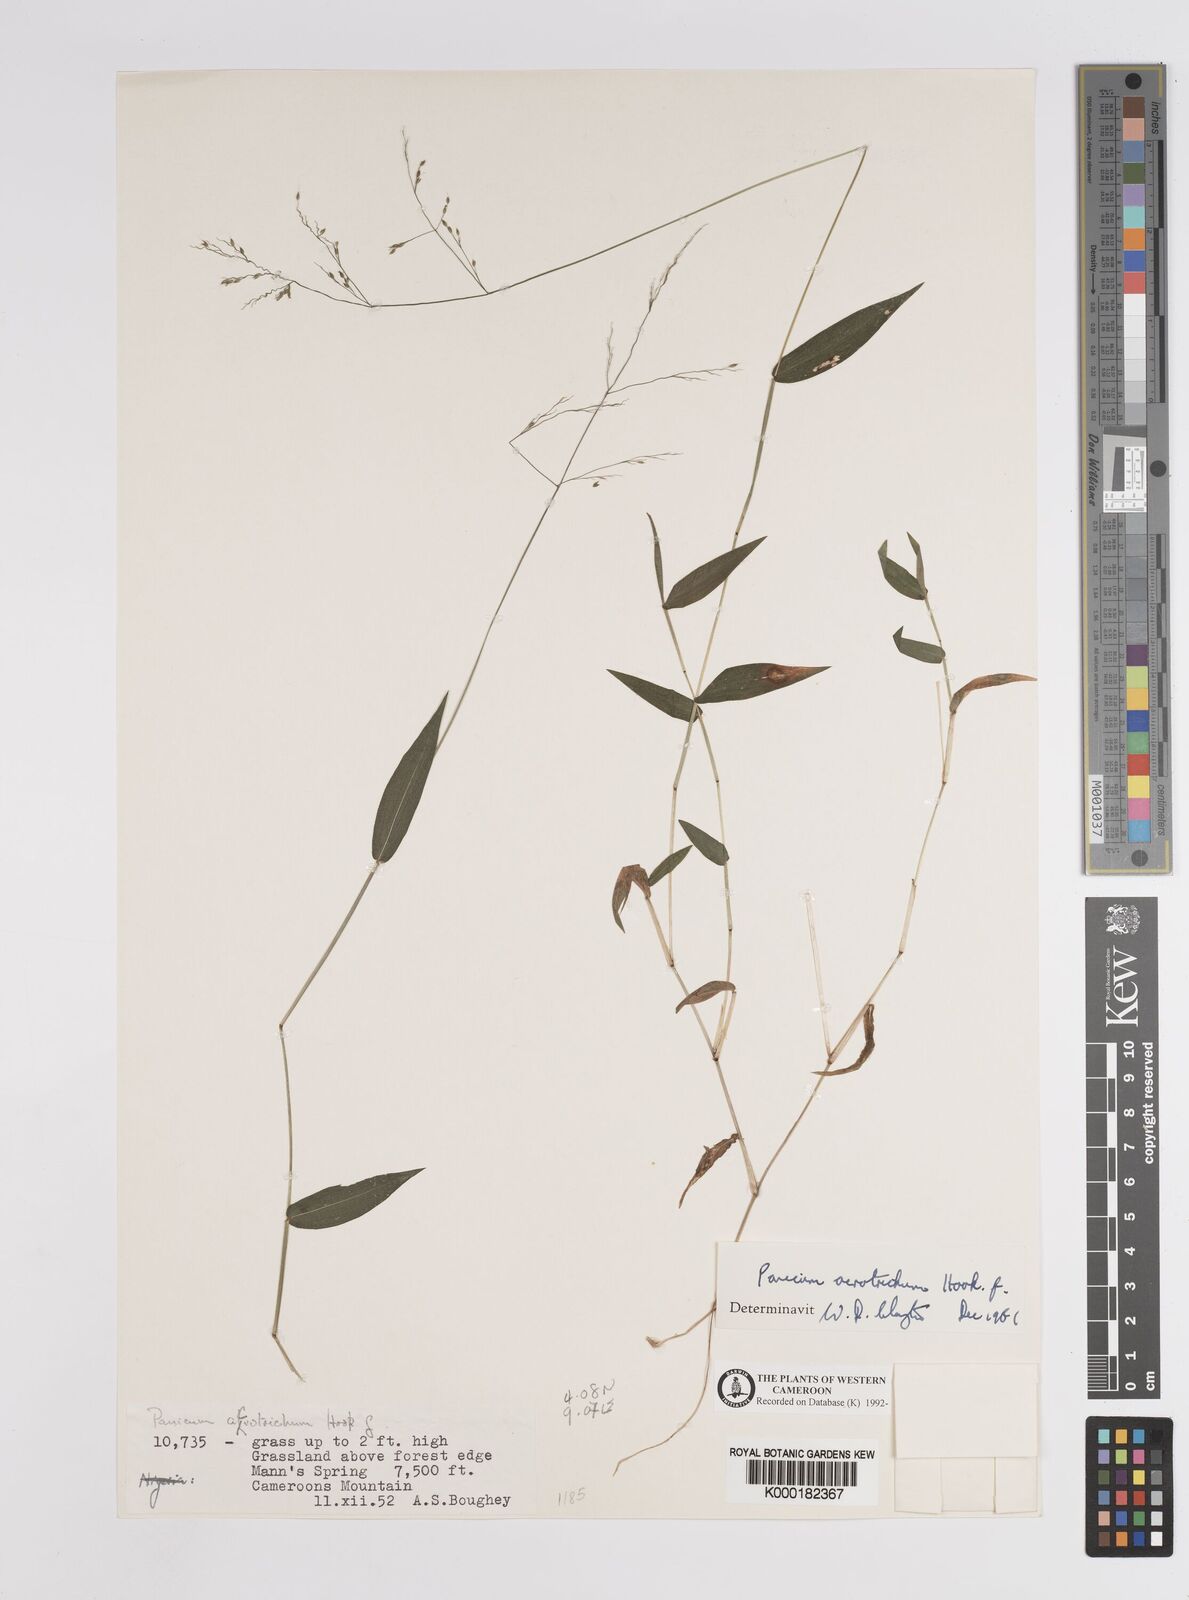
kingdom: Plantae
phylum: Tracheophyta
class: Liliopsida
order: Poales
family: Poaceae
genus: Panicum
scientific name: Panicum acrotrichum
